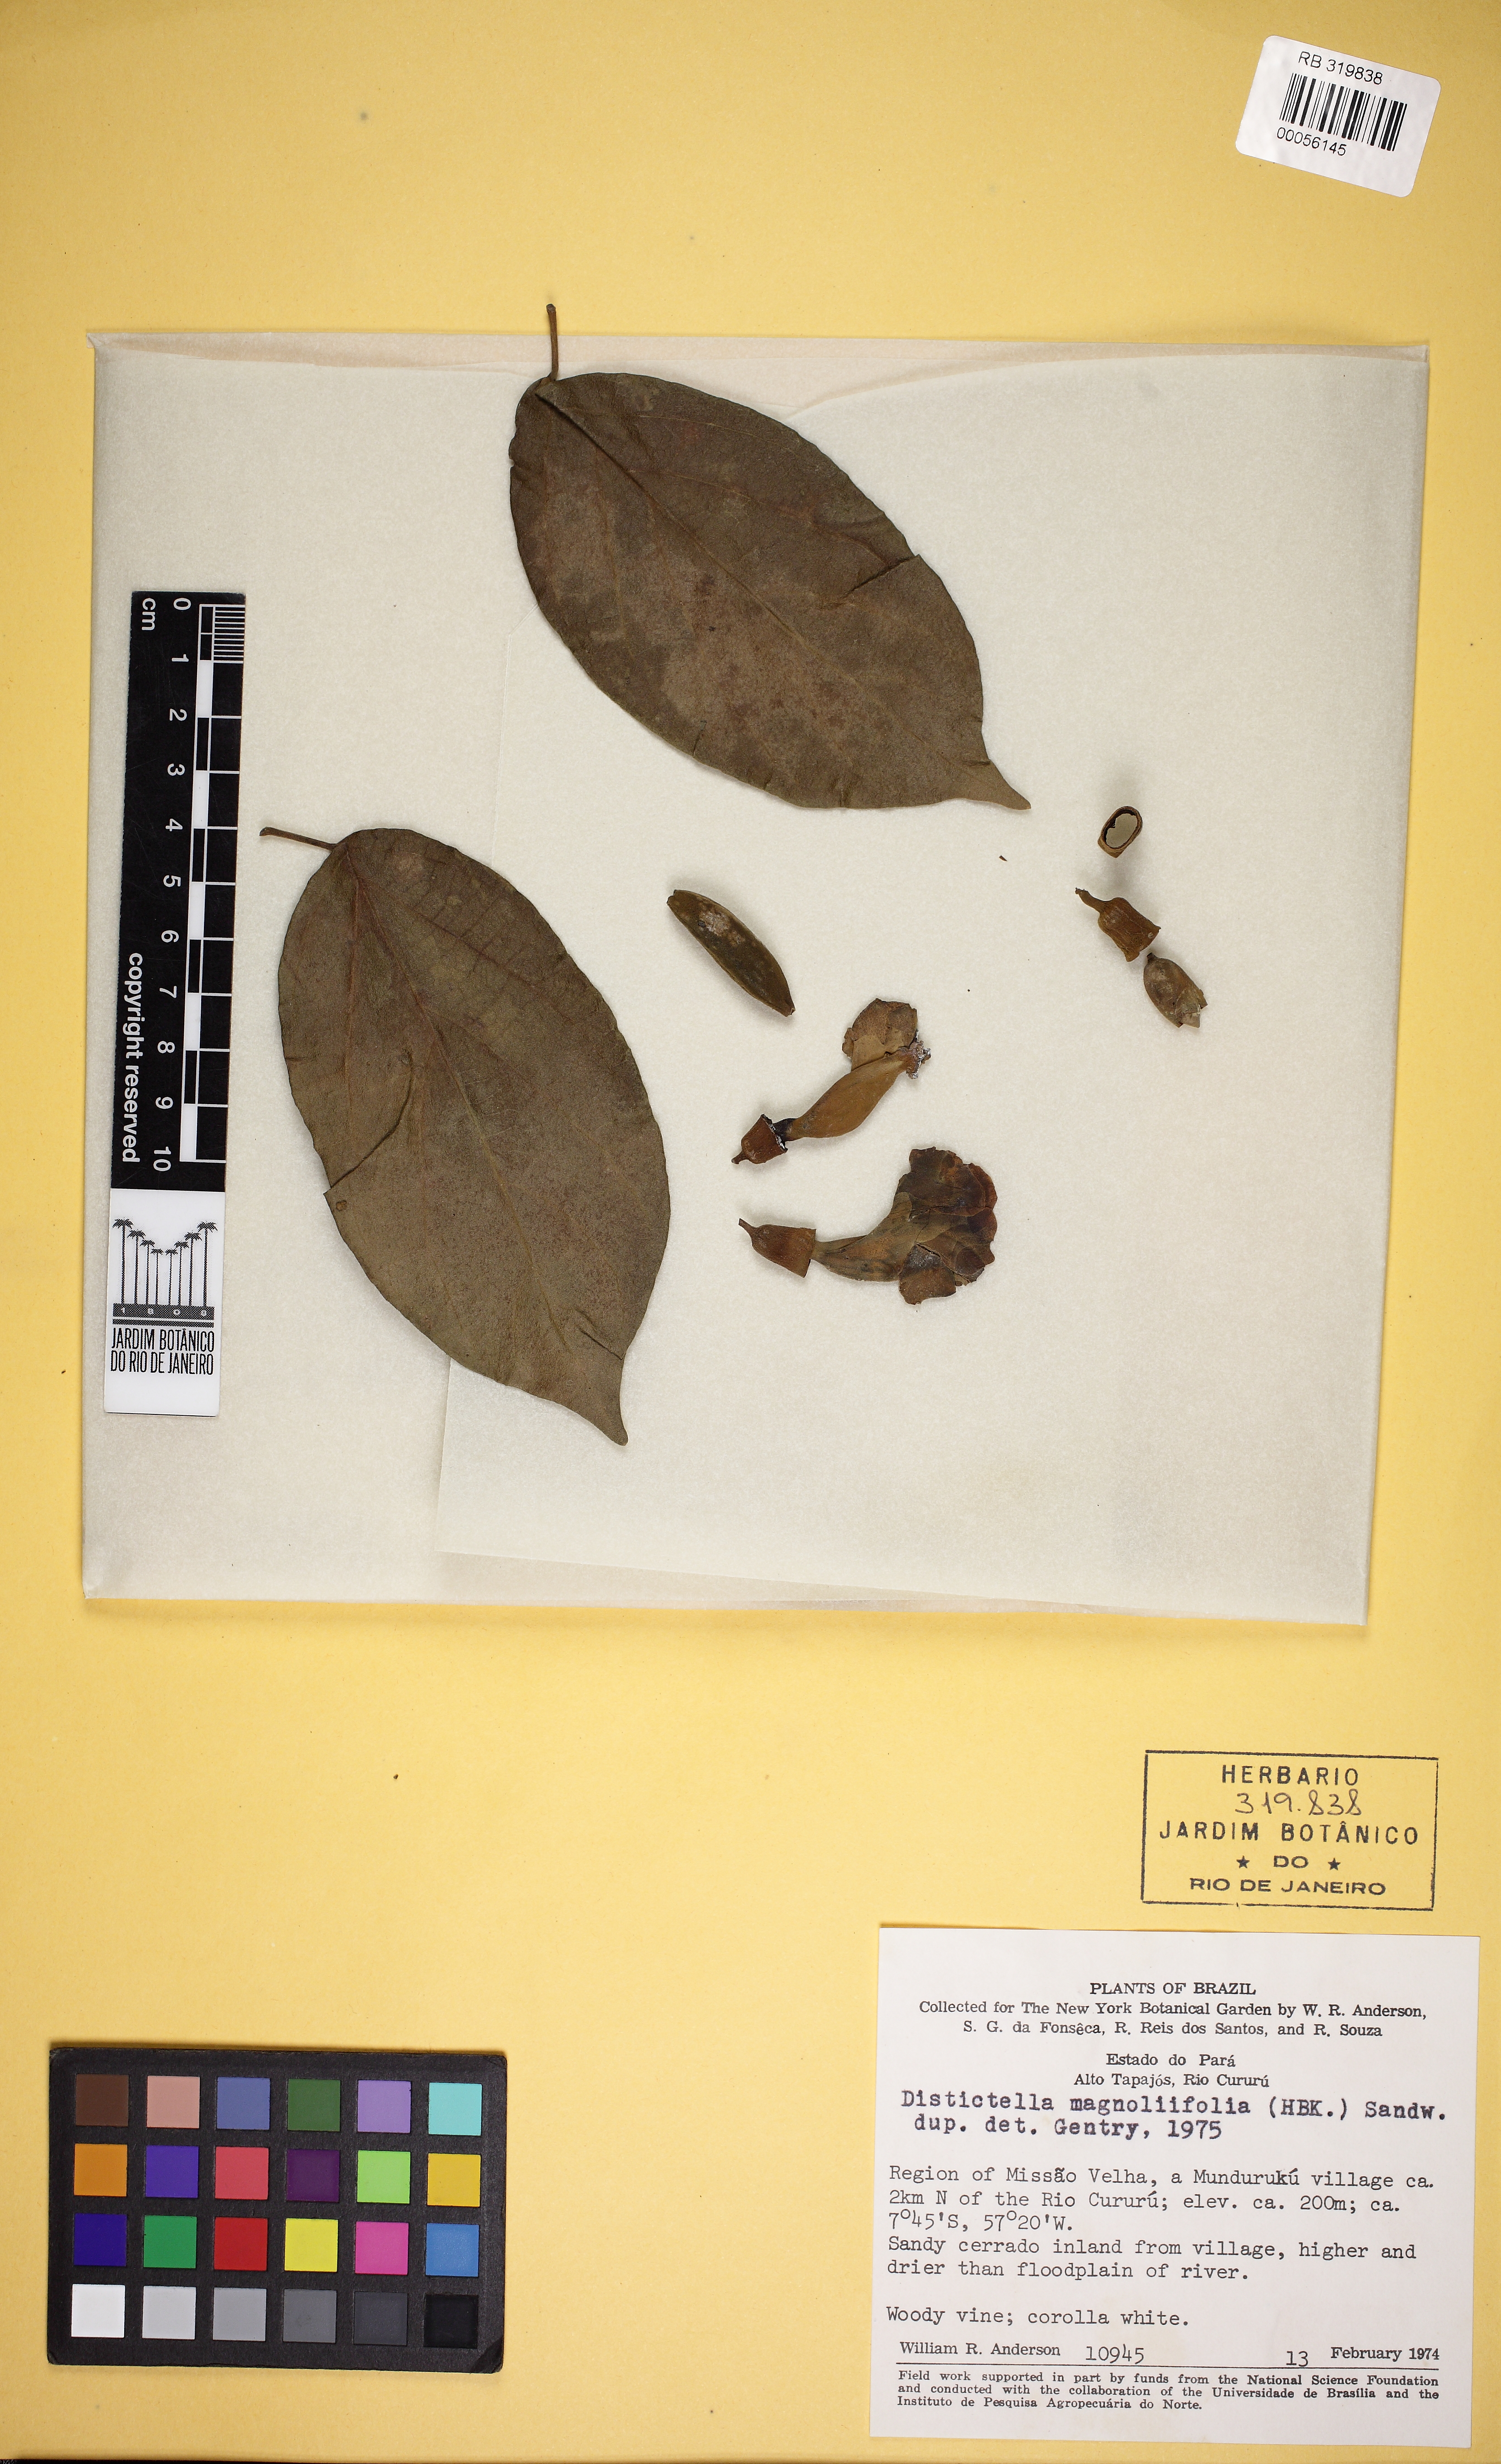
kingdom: Plantae
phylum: Tracheophyta
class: Magnoliopsida
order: Lamiales
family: Bignoniaceae
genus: Amphilophium
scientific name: Amphilophium magnoliifolium
